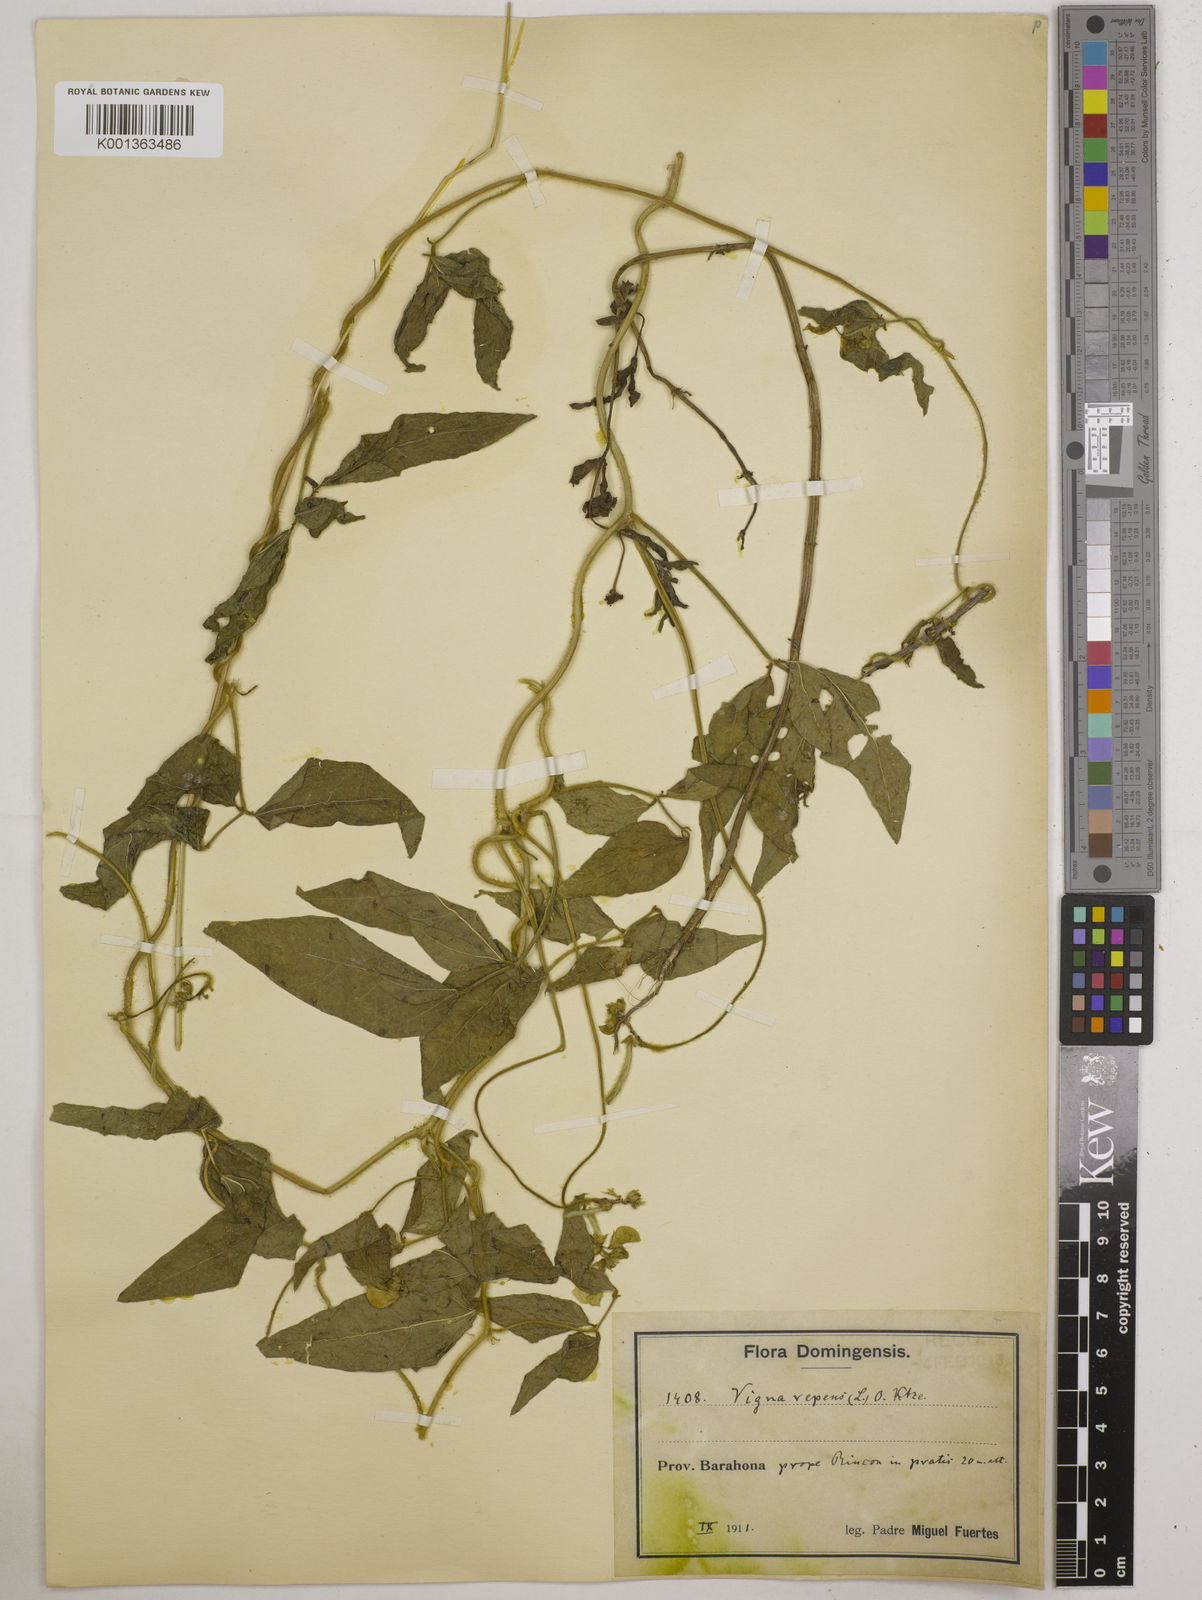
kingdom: Plantae
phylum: Tracheophyta
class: Magnoliopsida
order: Fabales
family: Fabaceae
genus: Vigna
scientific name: Vigna luteola
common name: Hairypod cowpea
